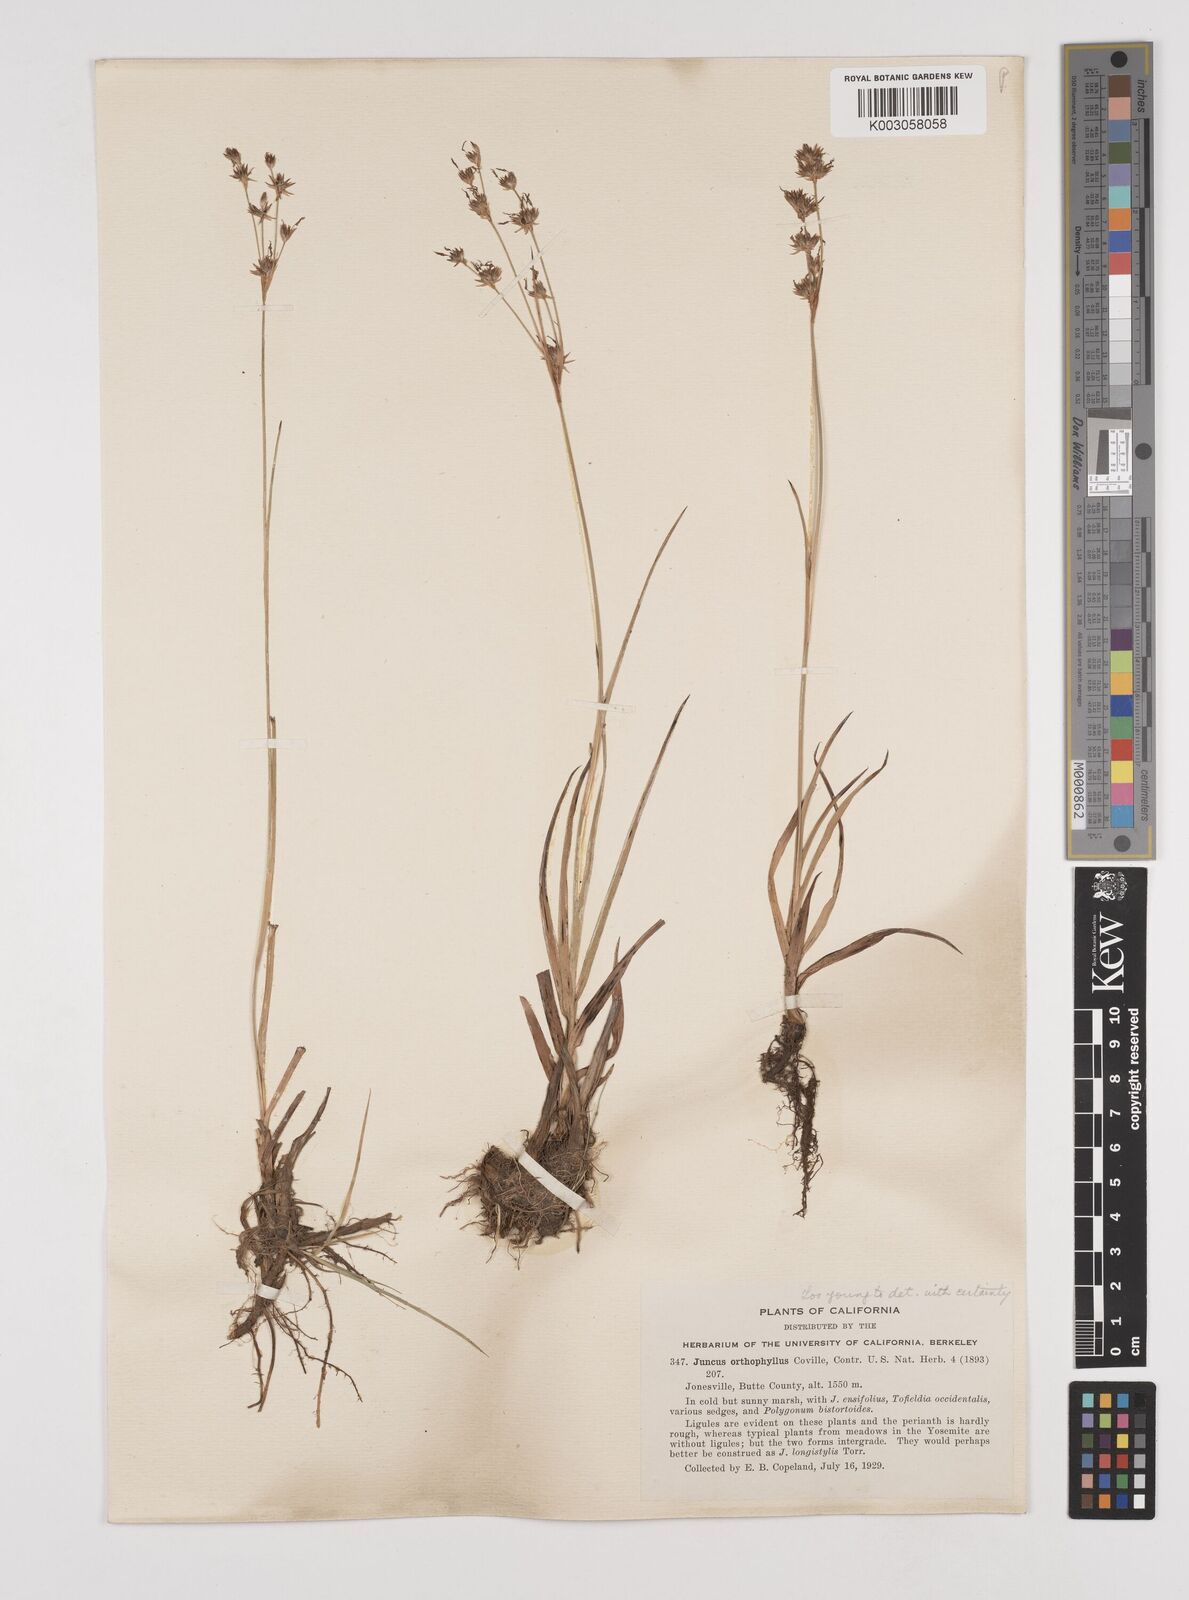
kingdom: Plantae
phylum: Tracheophyta
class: Liliopsida
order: Poales
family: Juncaceae
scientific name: Juncaceae
